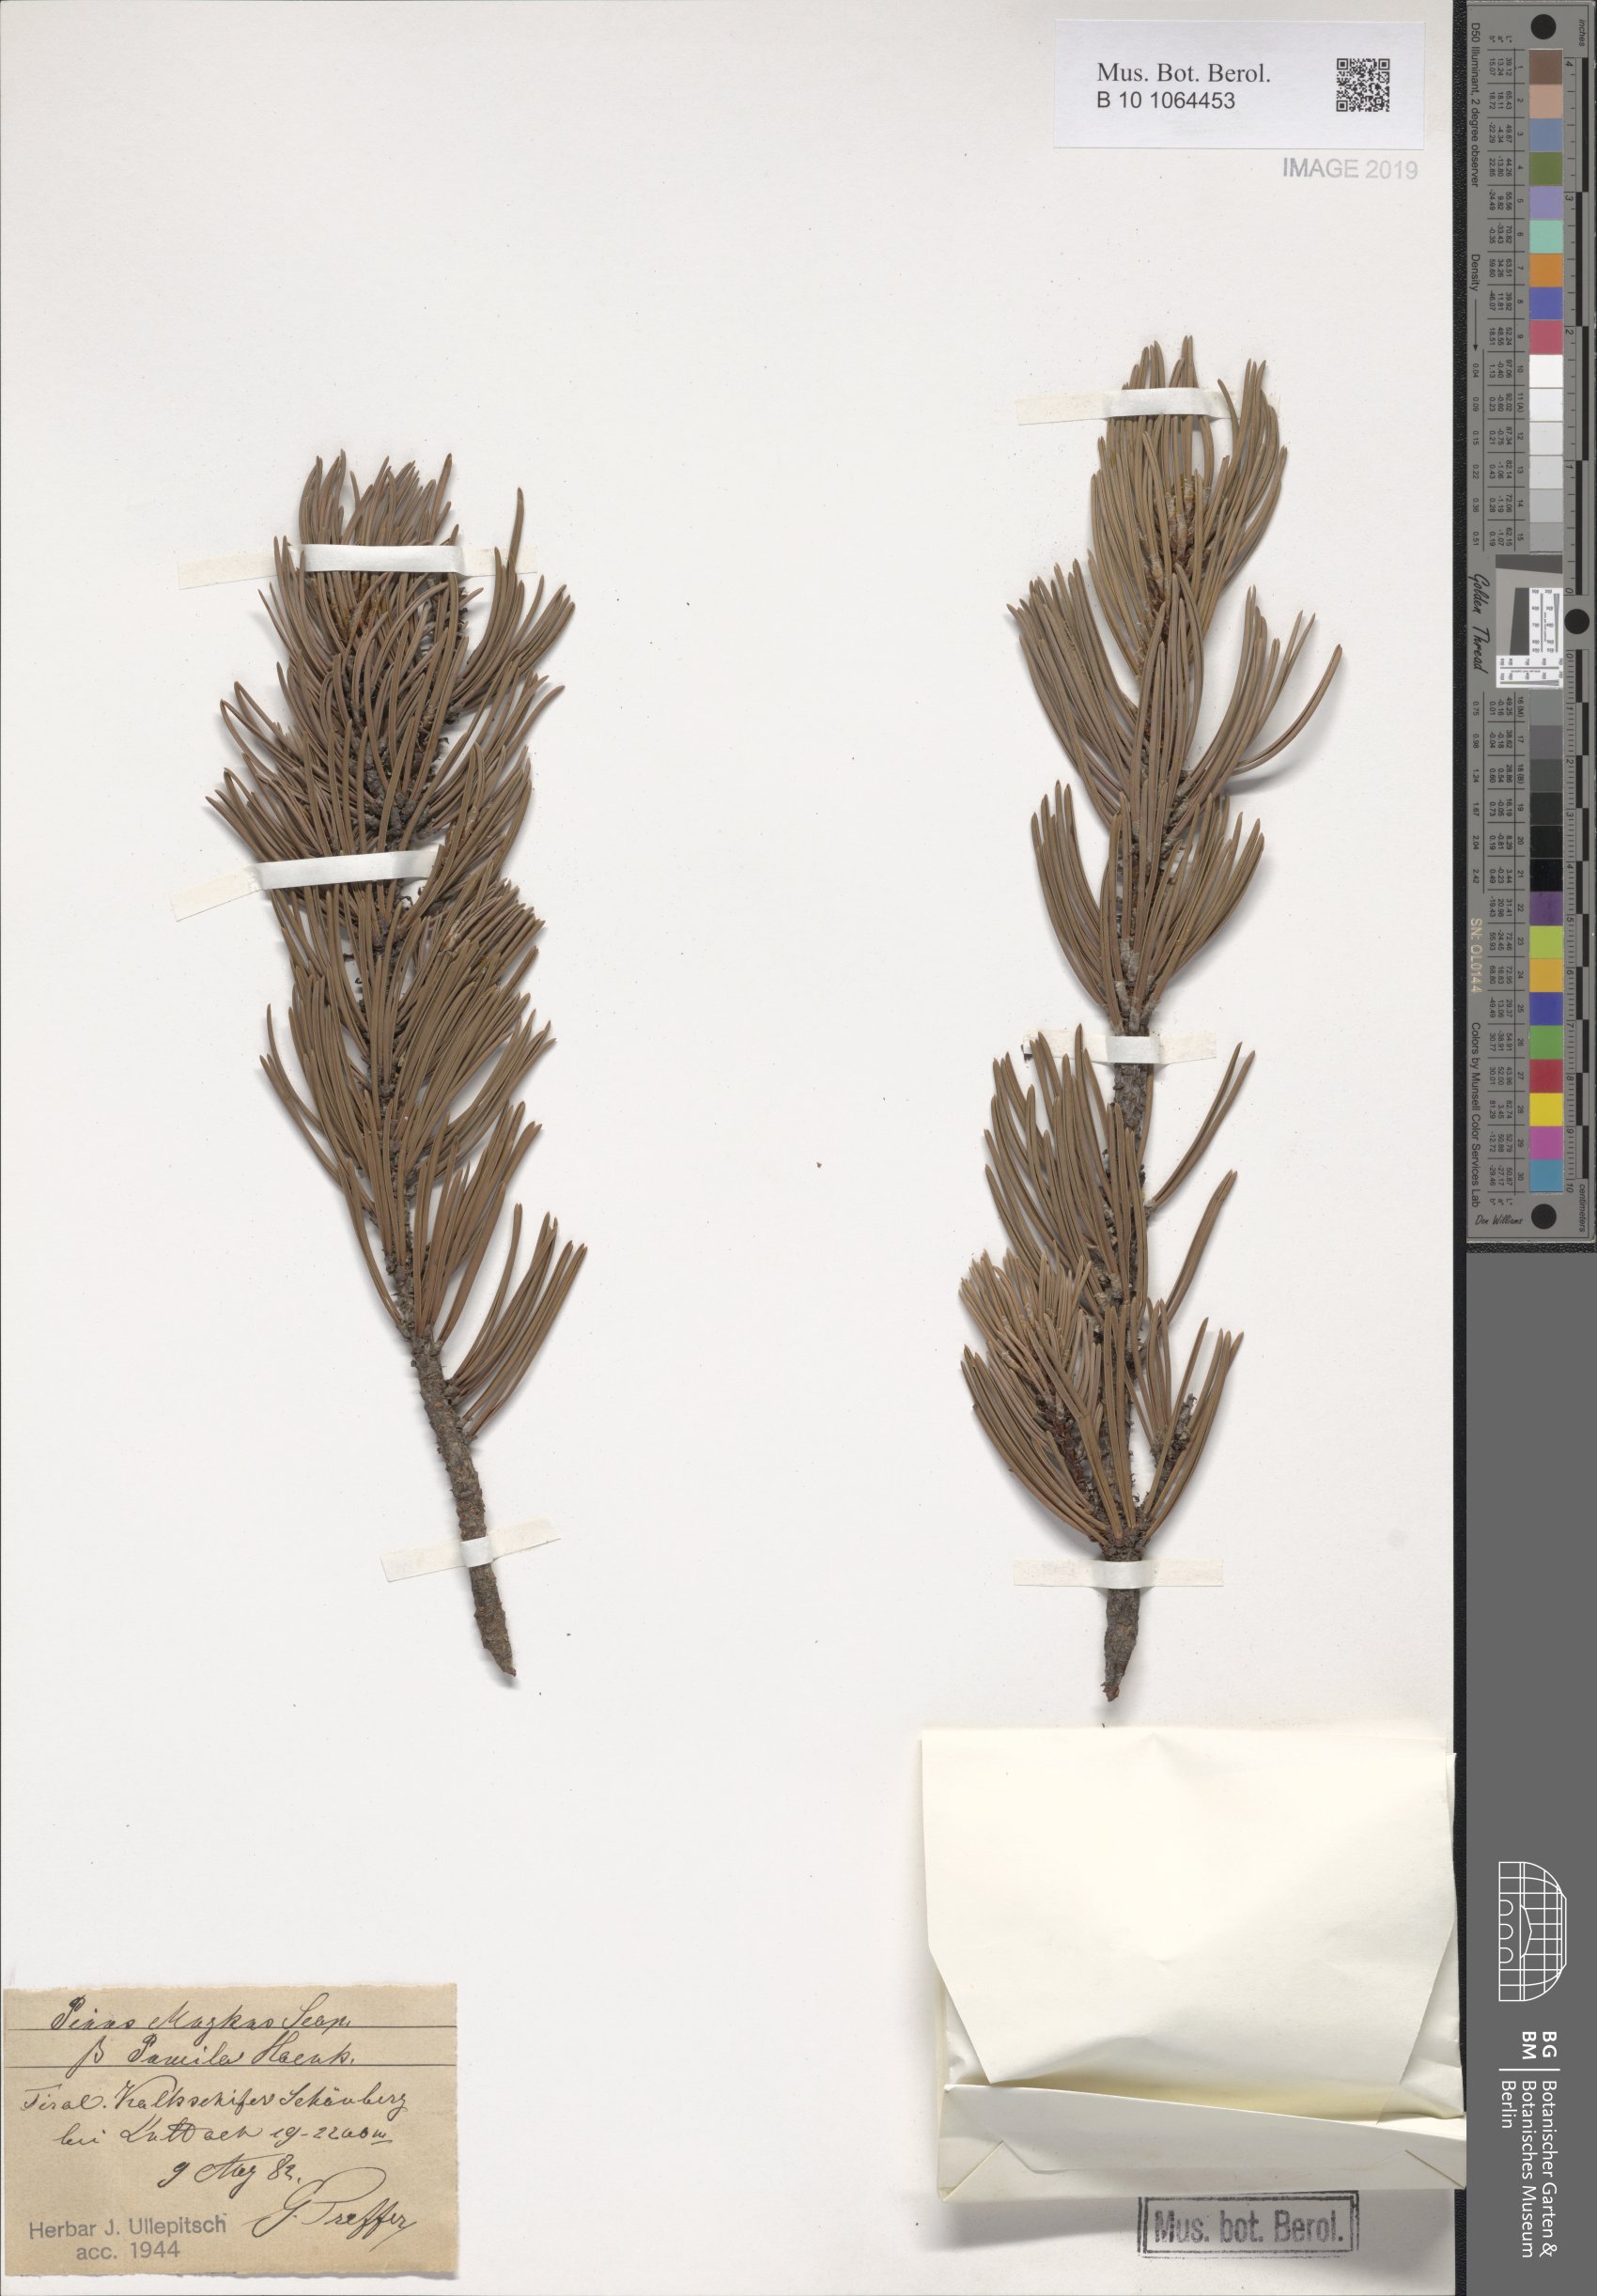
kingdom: Plantae
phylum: Tracheophyta
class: Pinopsida
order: Pinales
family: Pinaceae
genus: Pinus
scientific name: Pinus mugo
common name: Mugo pine
